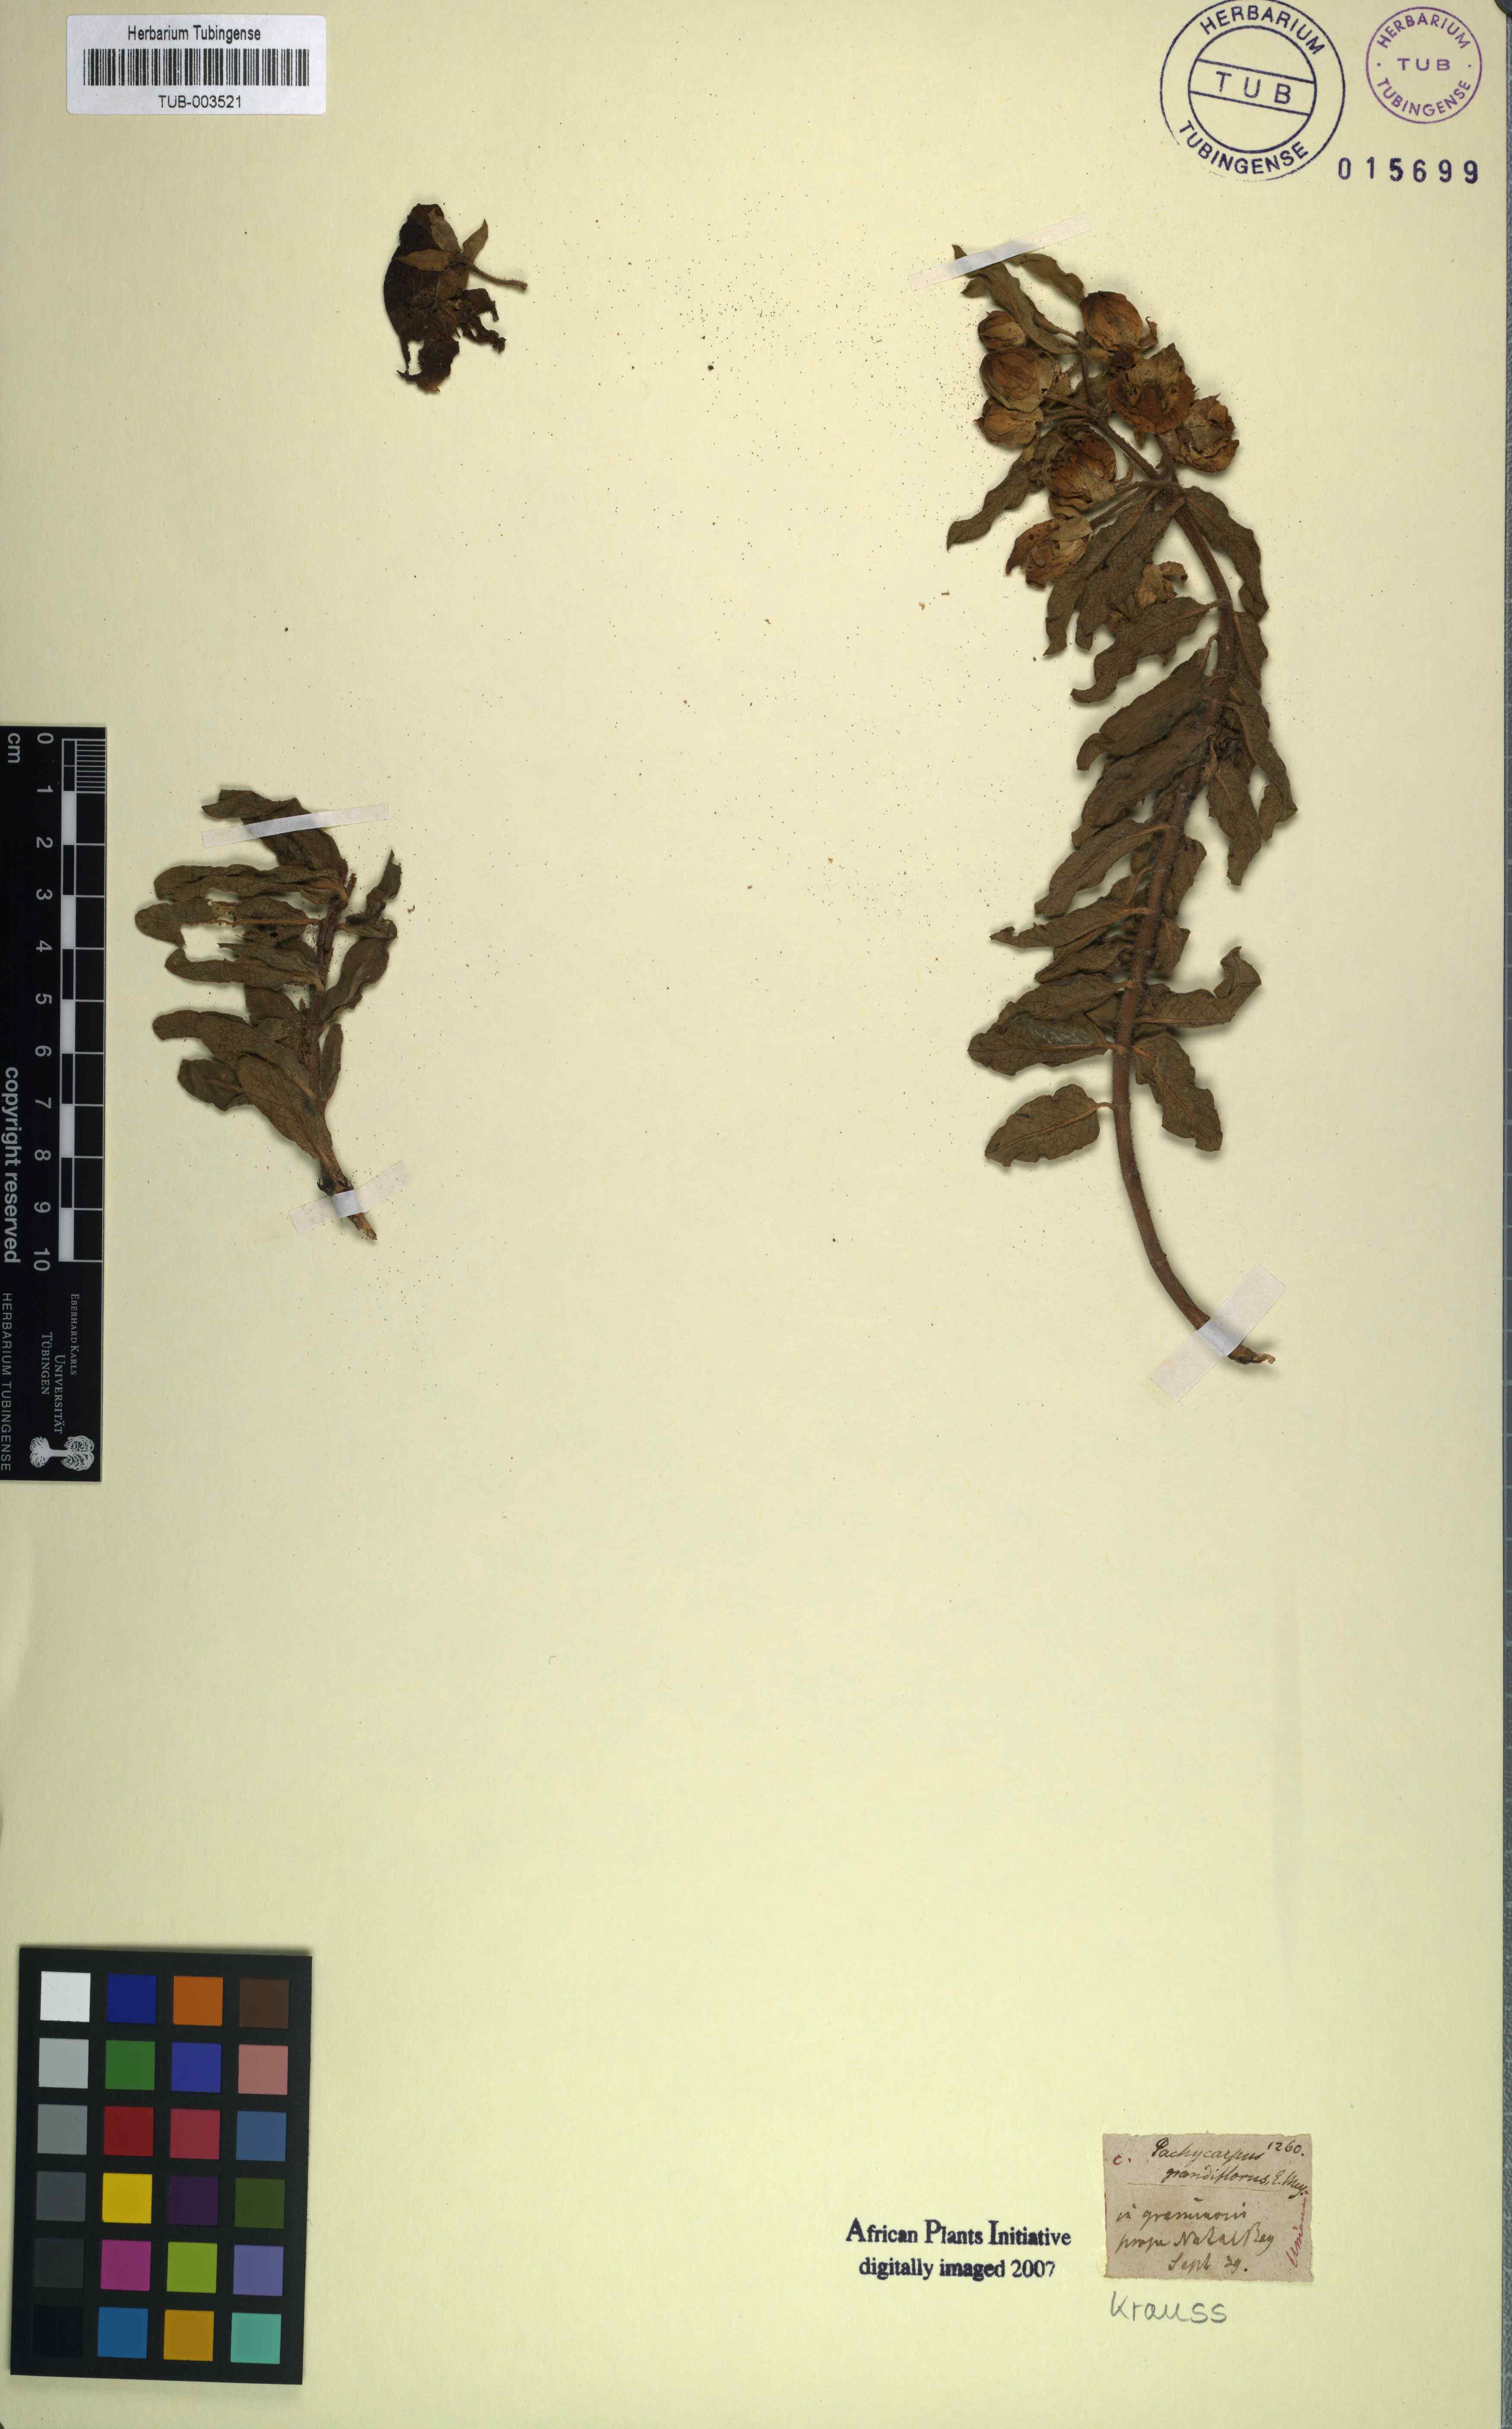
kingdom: Plantae
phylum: Tracheophyta
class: Magnoliopsida
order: Gentianales
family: Apocynaceae
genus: Pachycarpus
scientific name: Pachycarpus grandiflorus
